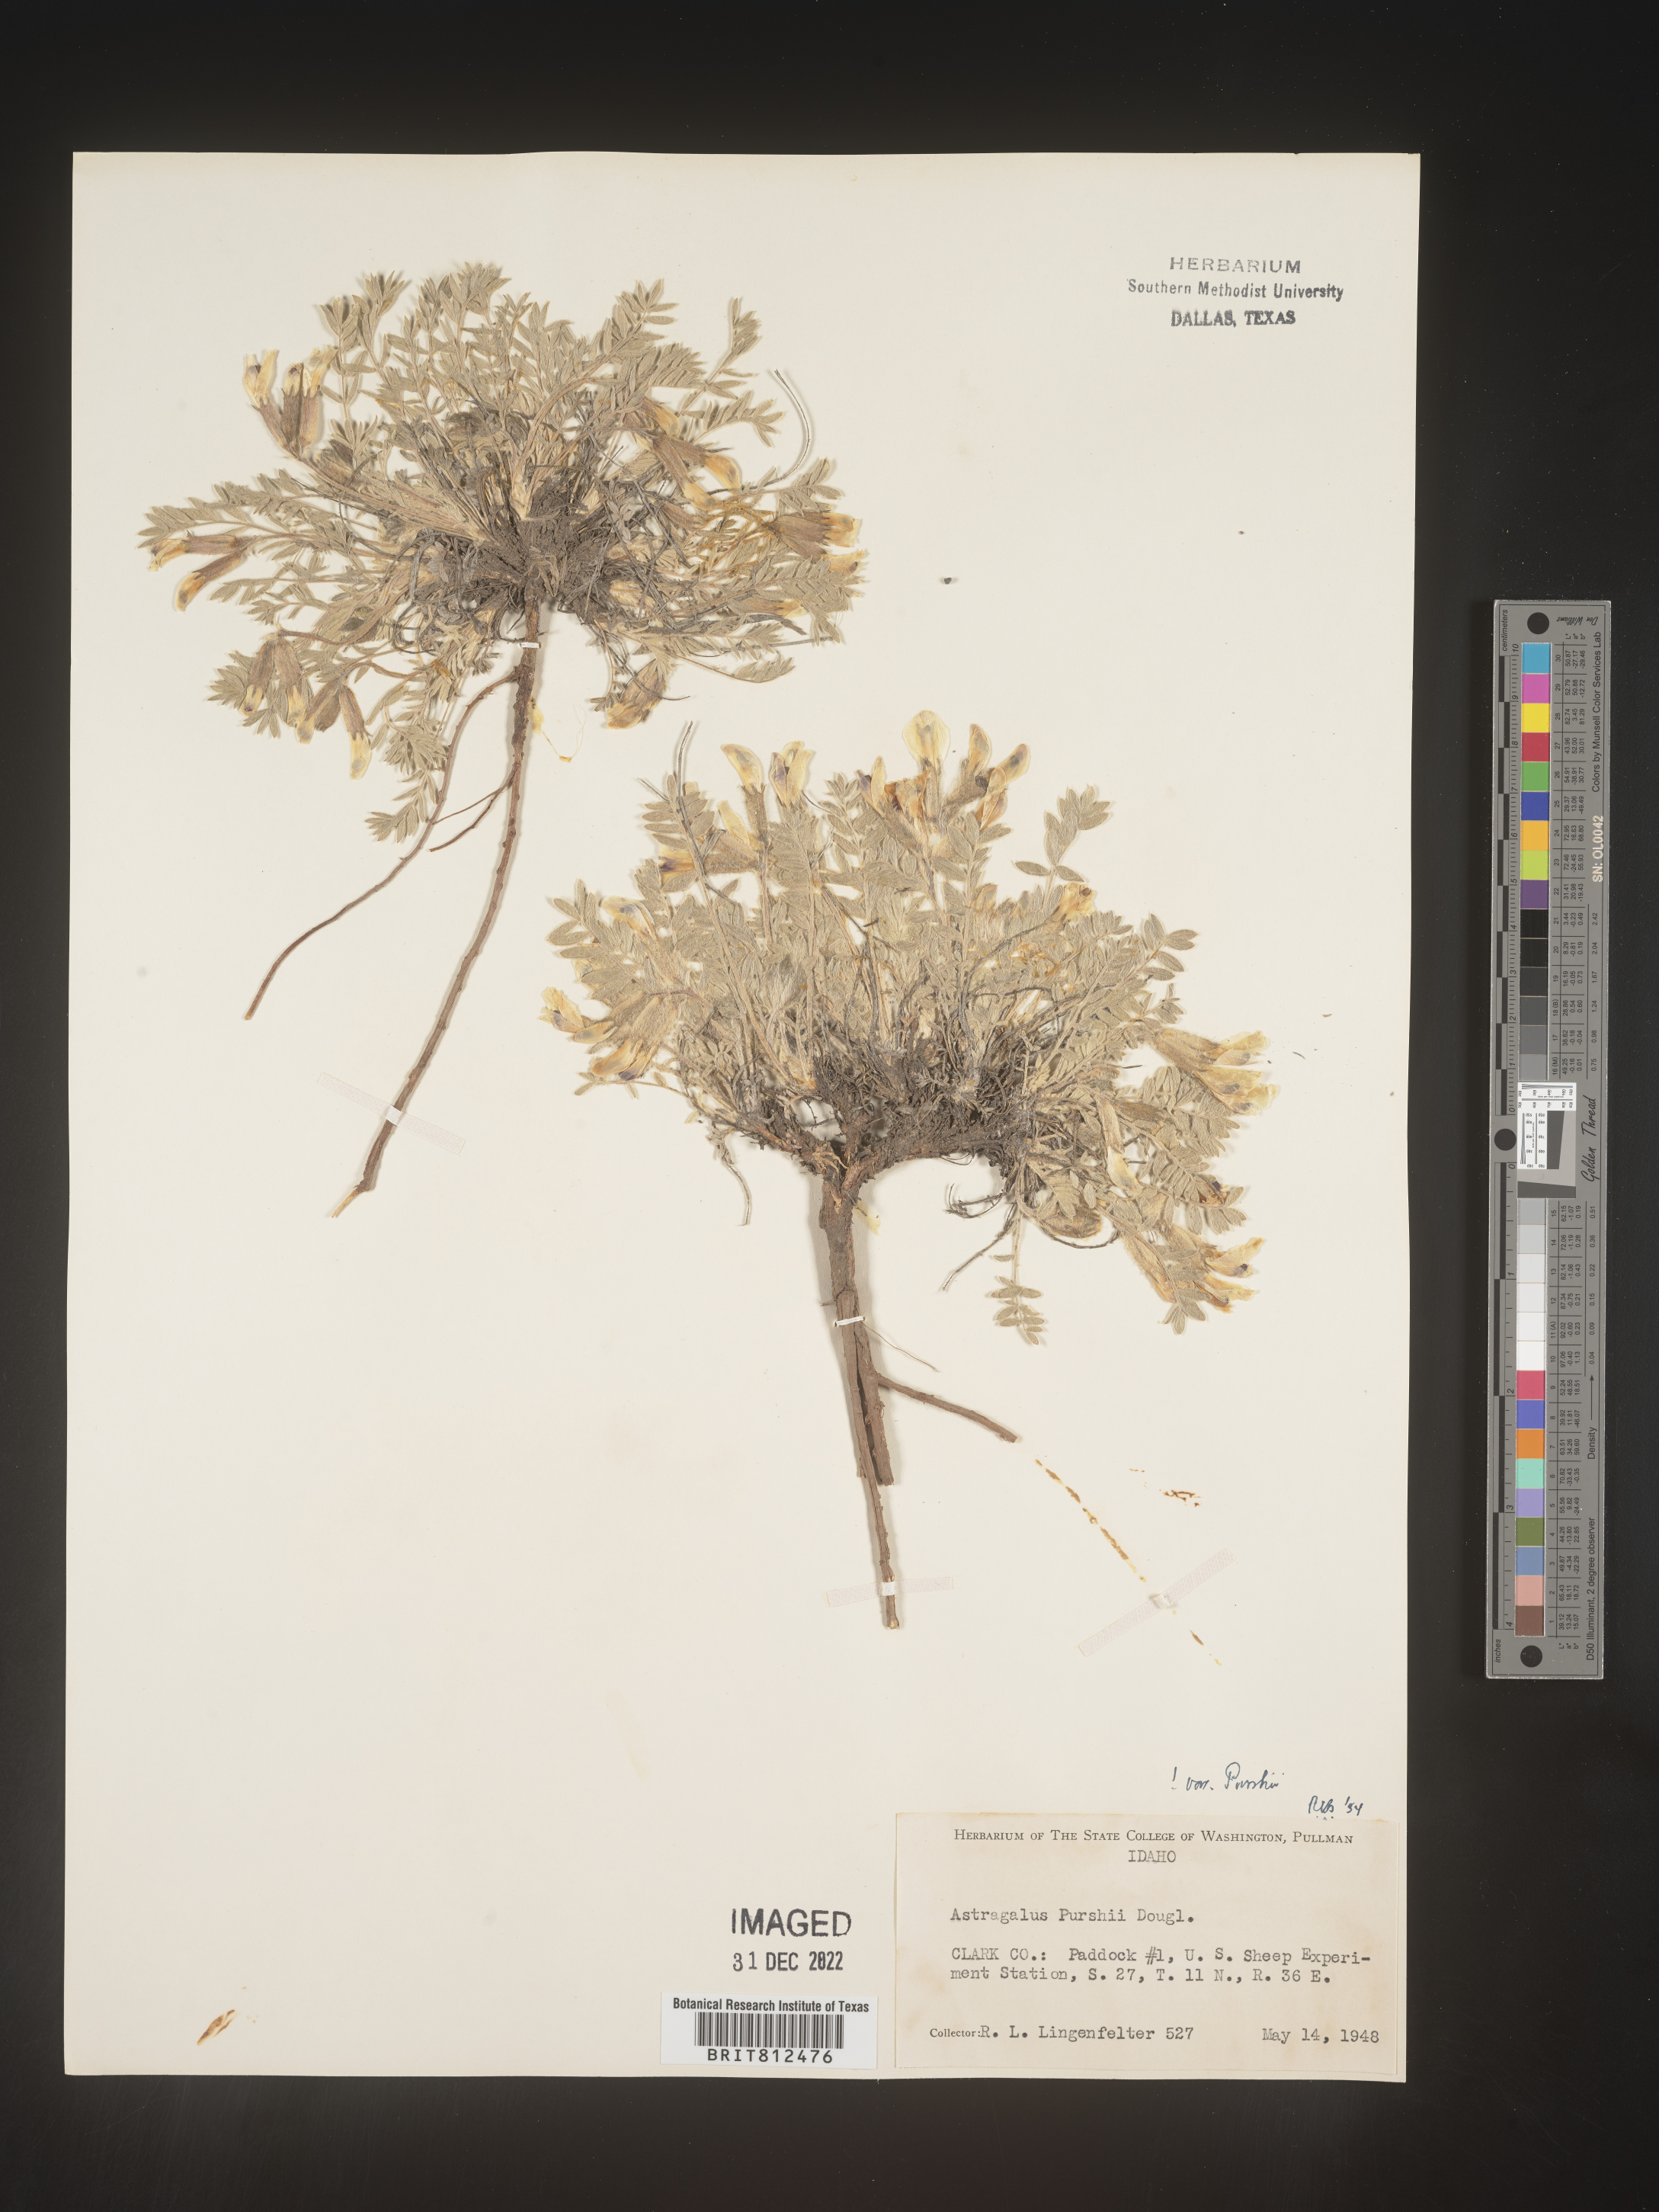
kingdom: Plantae
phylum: Tracheophyta
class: Magnoliopsida
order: Fabales
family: Fabaceae
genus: Astragalus
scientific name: Astragalus leucolobus
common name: Big bear valley woollypod
